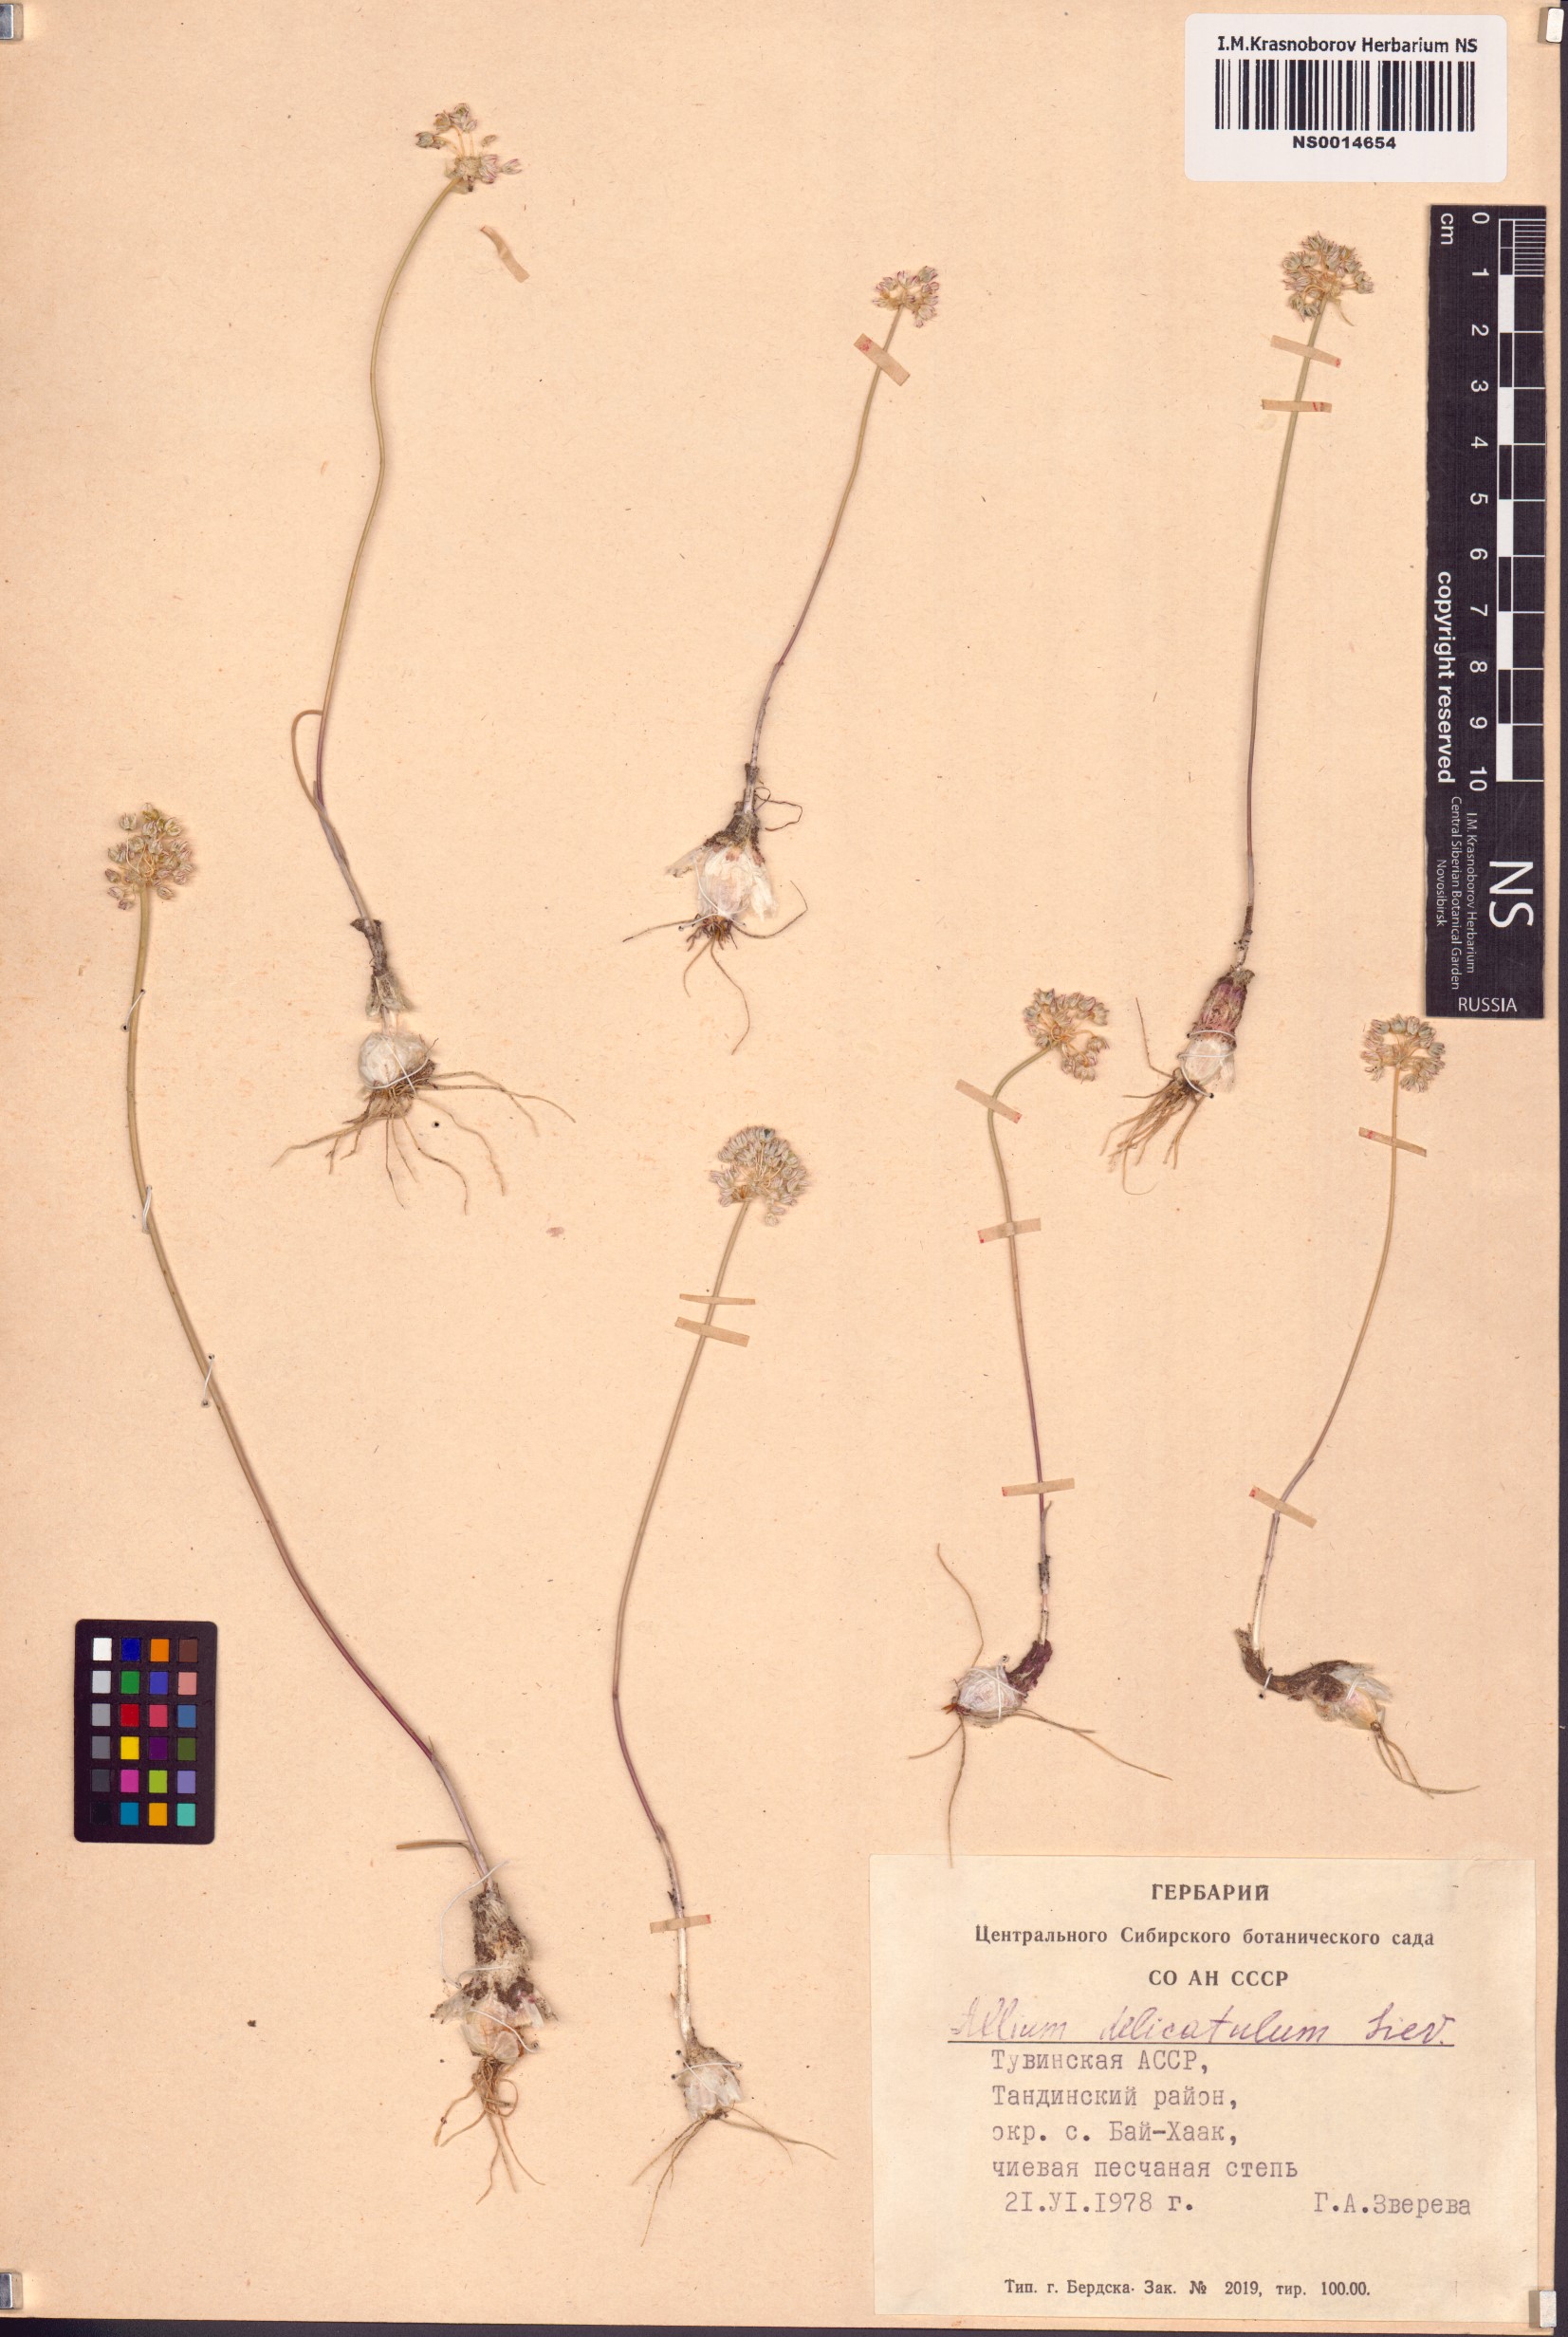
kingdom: Plantae
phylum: Tracheophyta
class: Liliopsida
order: Asparagales
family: Amaryllidaceae
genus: Allium
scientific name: Allium delicatulum
